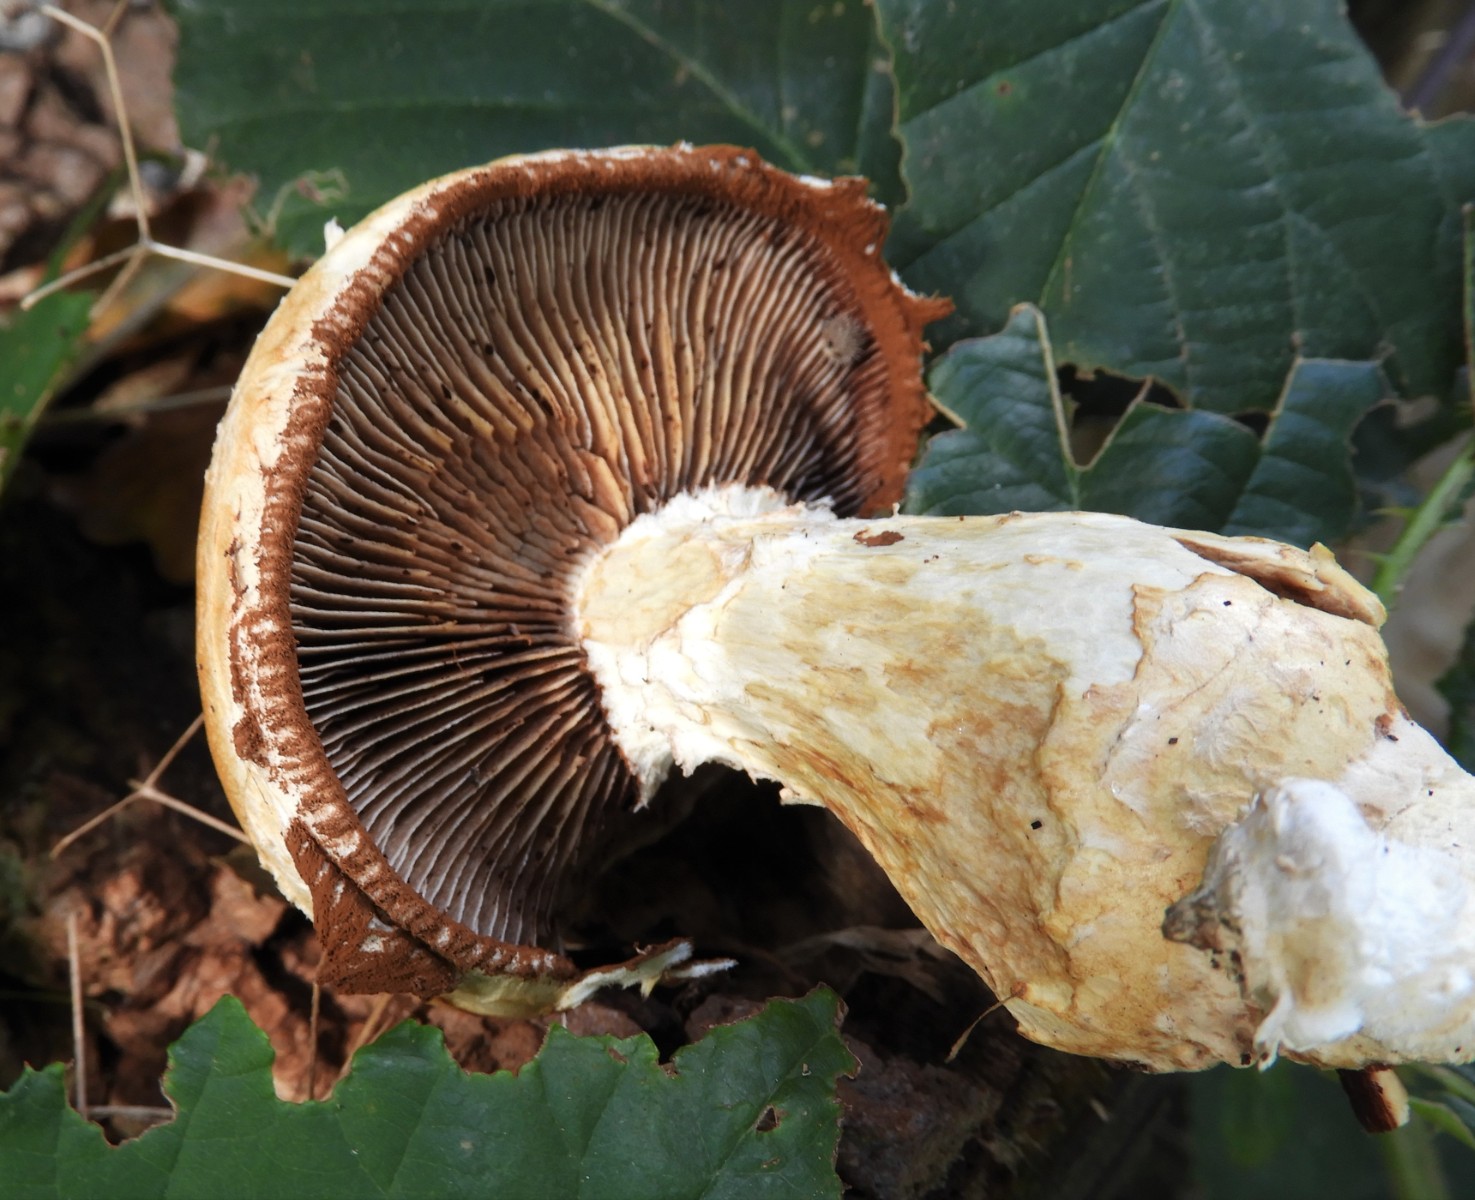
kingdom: Fungi
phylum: Basidiomycota
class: Agaricomycetes
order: Agaricales
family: Strophariaceae
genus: Pholiota
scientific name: Pholiota populnea
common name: poppel-kæmpeskælhat
